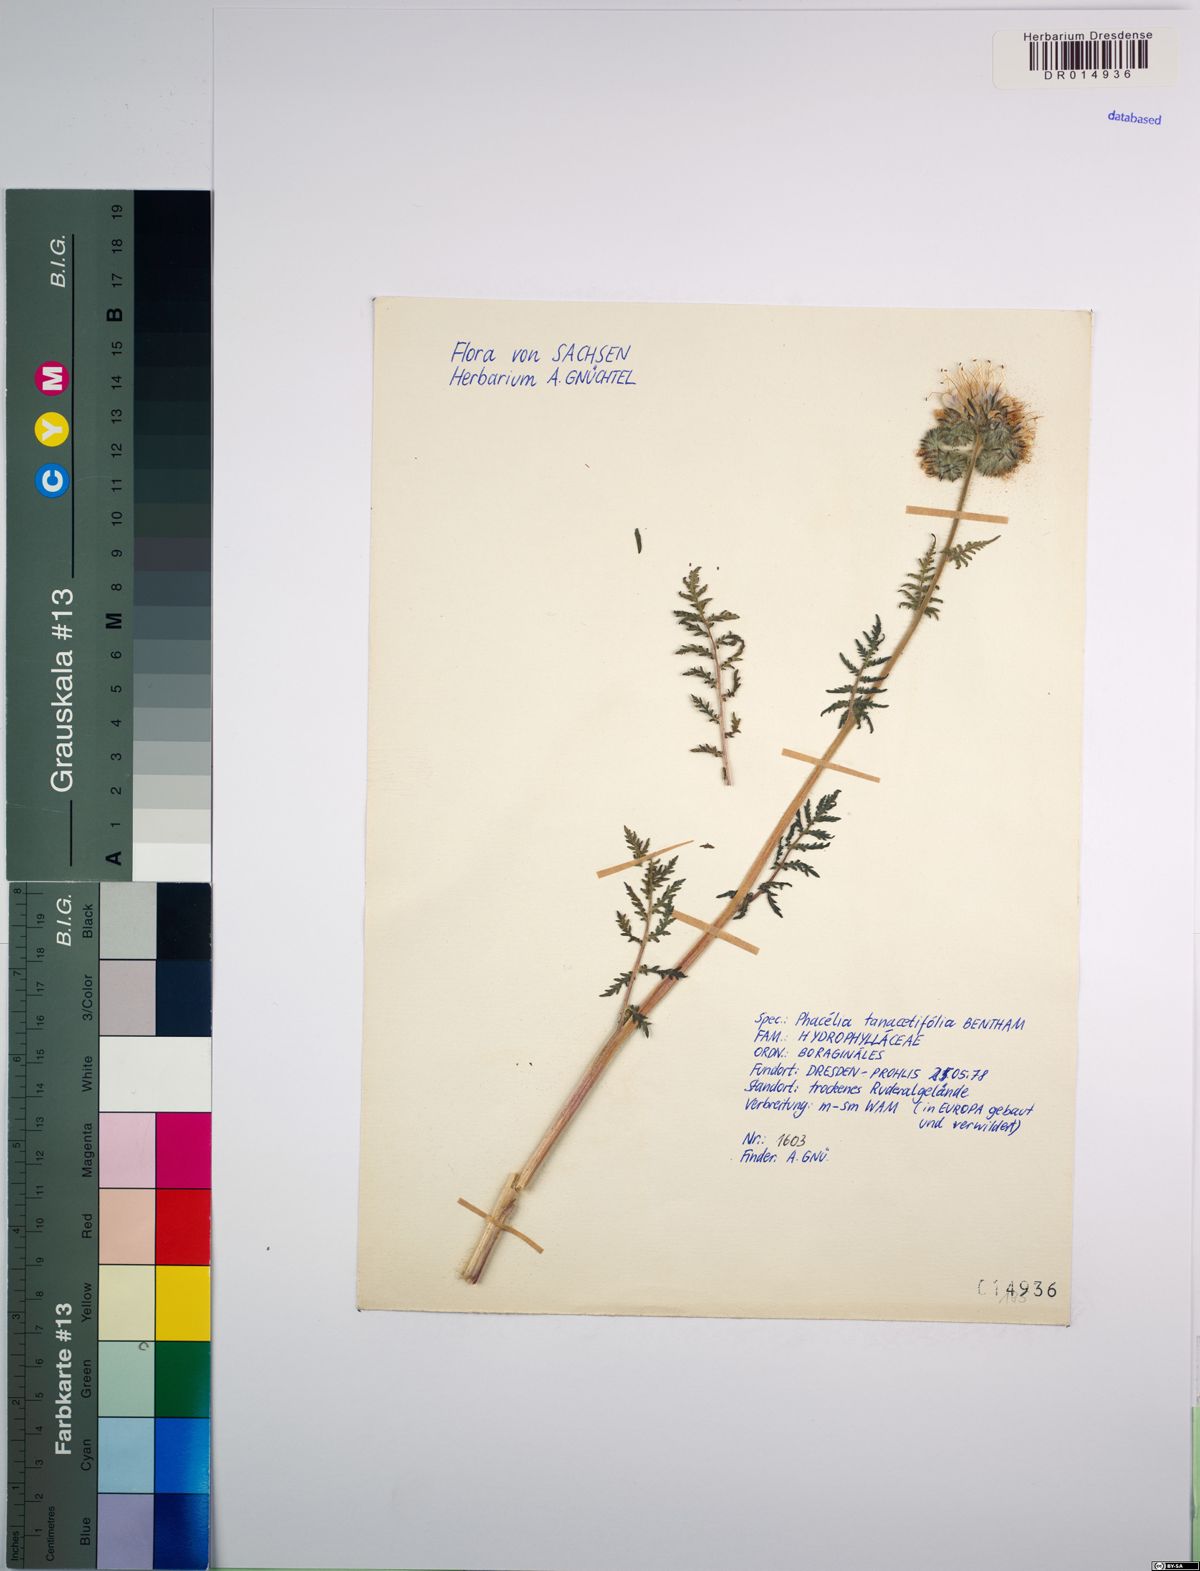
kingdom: Plantae
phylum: Tracheophyta
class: Magnoliopsida
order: Boraginales
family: Hydrophyllaceae
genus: Phacelia
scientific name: Phacelia tanacetifolia
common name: Phacelia
